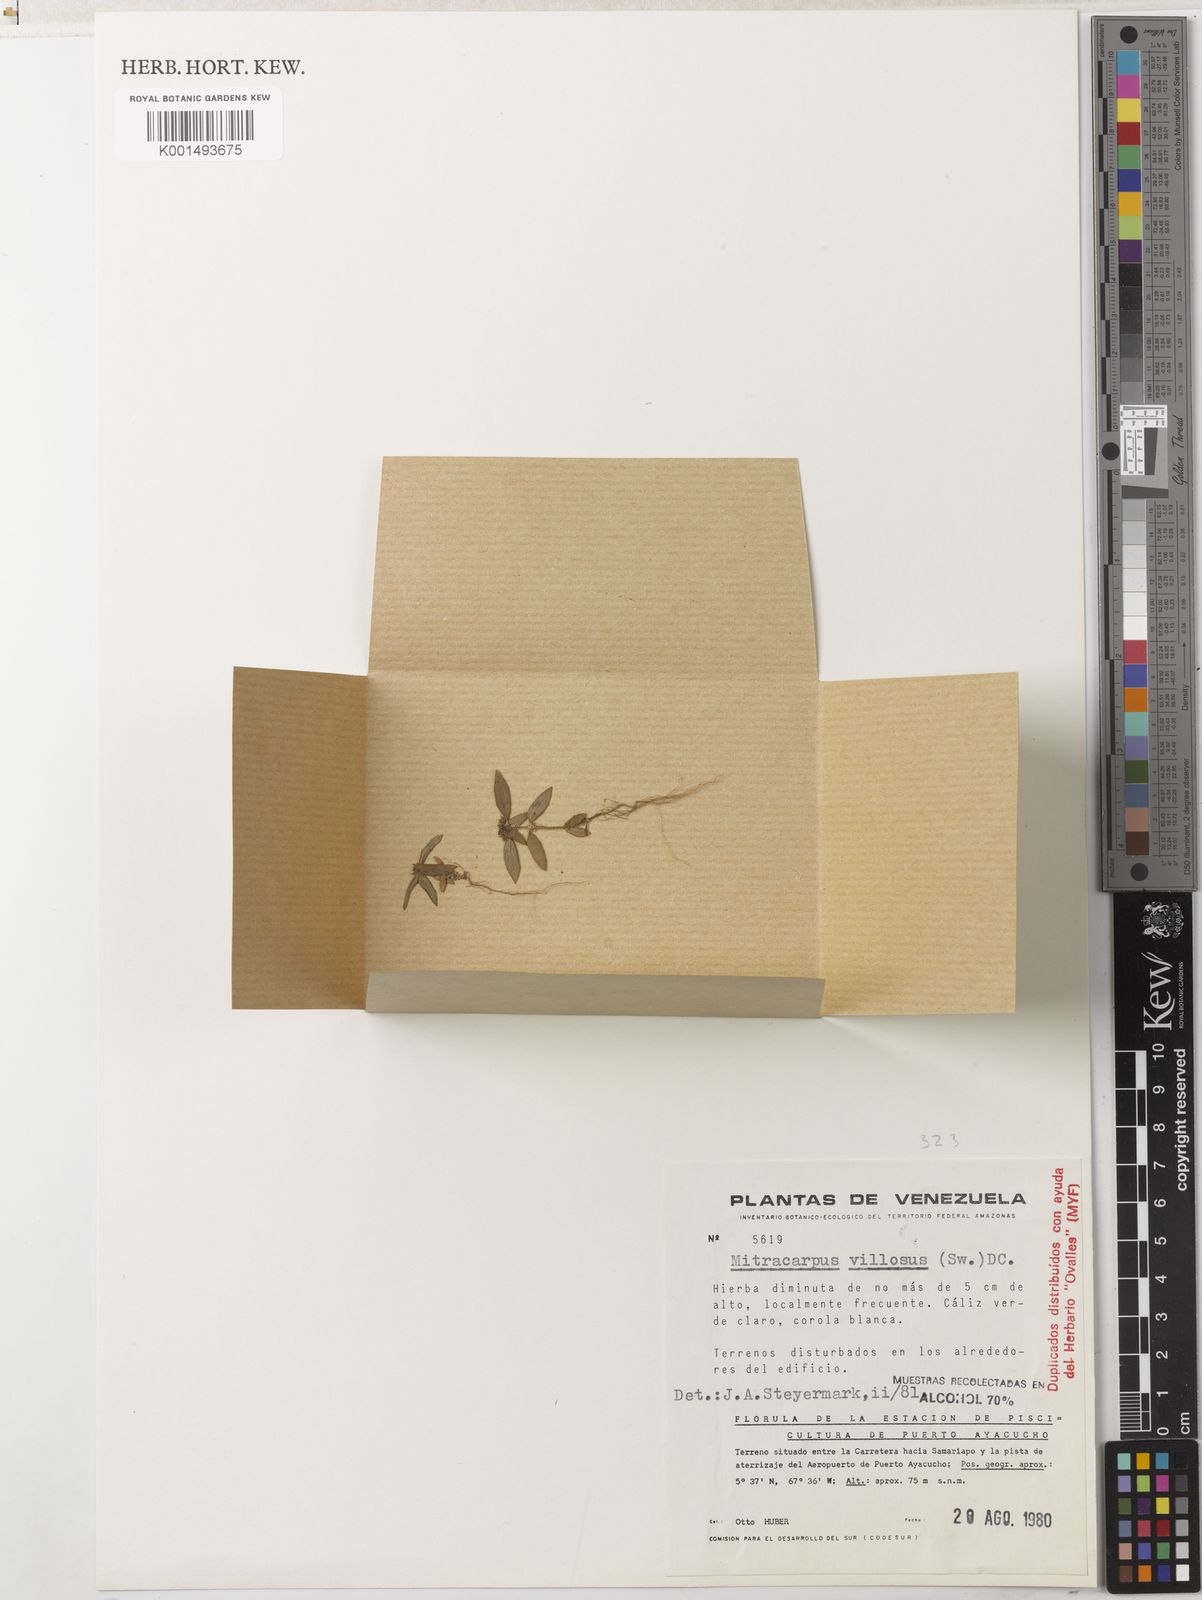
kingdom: Plantae
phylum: Tracheophyta
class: Magnoliopsida
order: Gentianales
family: Rubiaceae
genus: Mitracarpus
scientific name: Mitracarpus hirtus
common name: Tropical girdlepod
